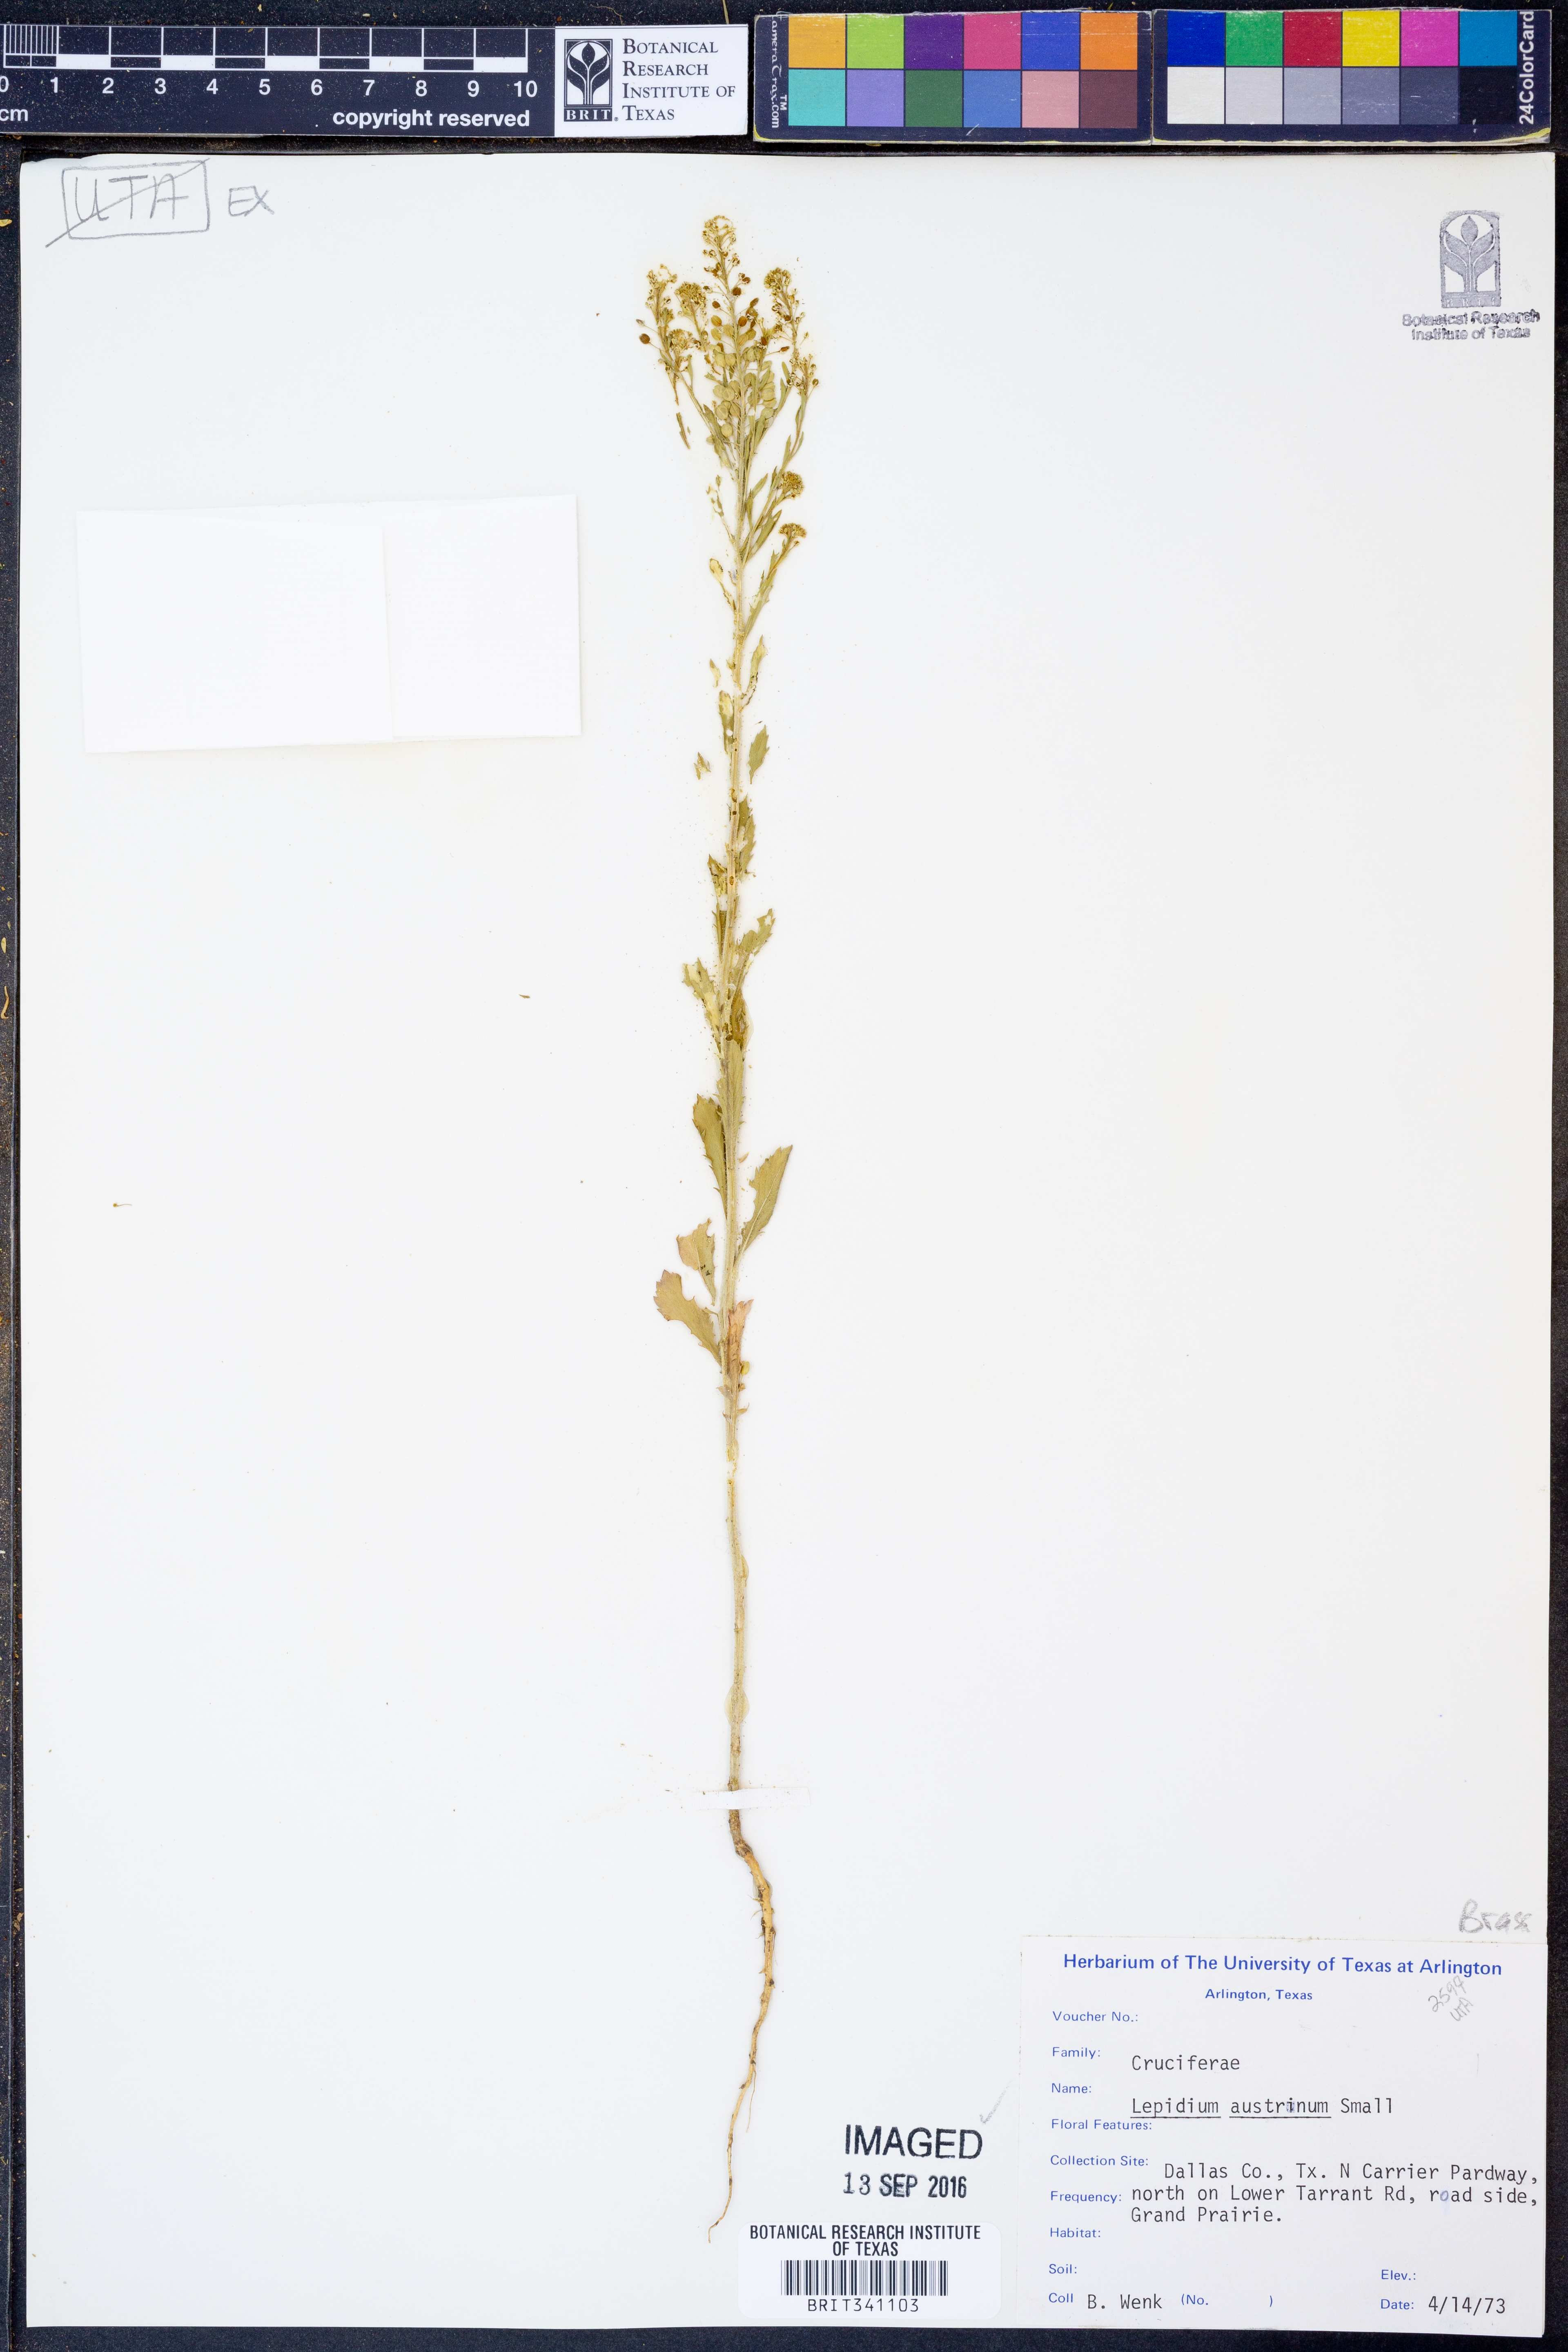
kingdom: Plantae
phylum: Tracheophyta
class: Magnoliopsida
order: Brassicales
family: Brassicaceae
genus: Lepidium
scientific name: Lepidium austrinum
